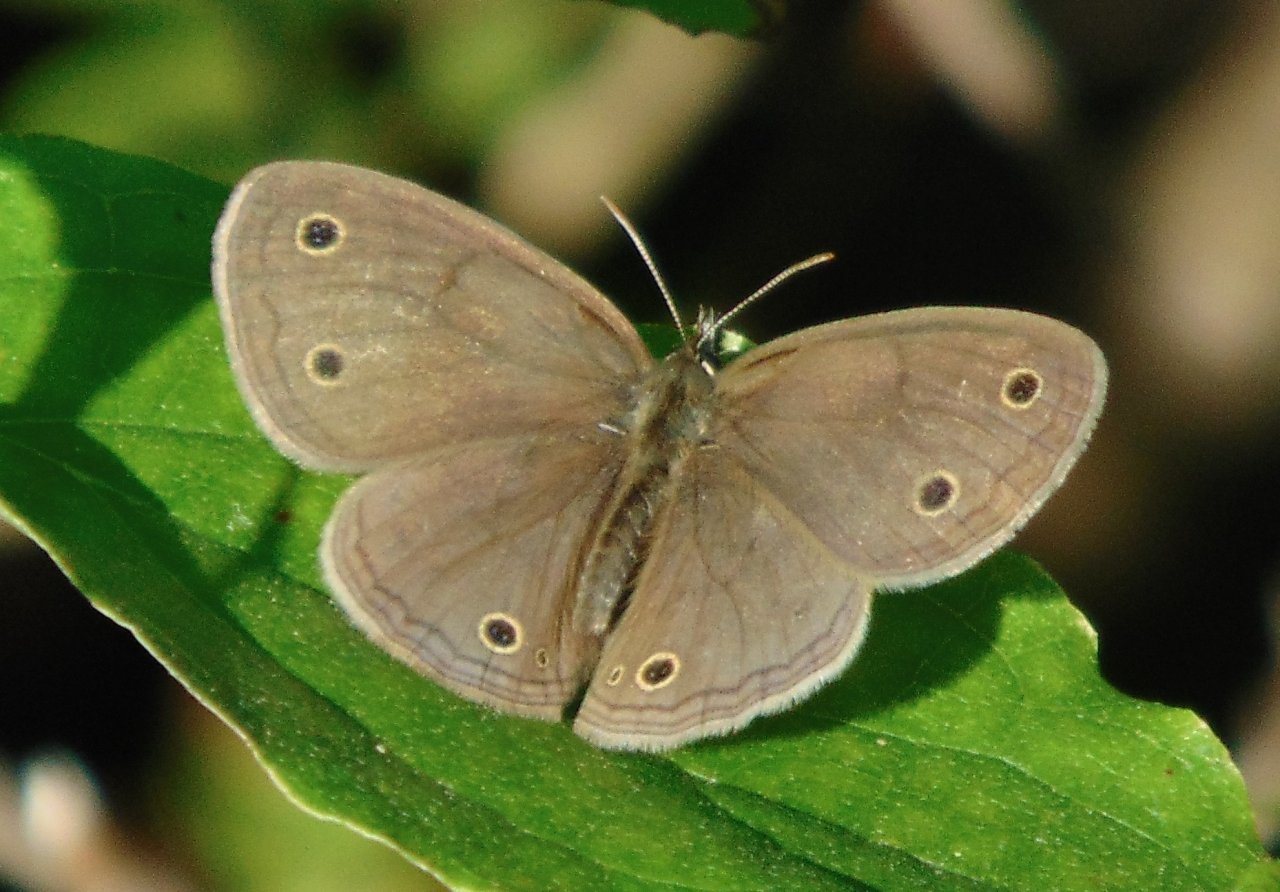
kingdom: Animalia
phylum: Arthropoda
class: Insecta
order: Lepidoptera
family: Nymphalidae
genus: Euptychia
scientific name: Euptychia cymela
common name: Little Wood Satyr
